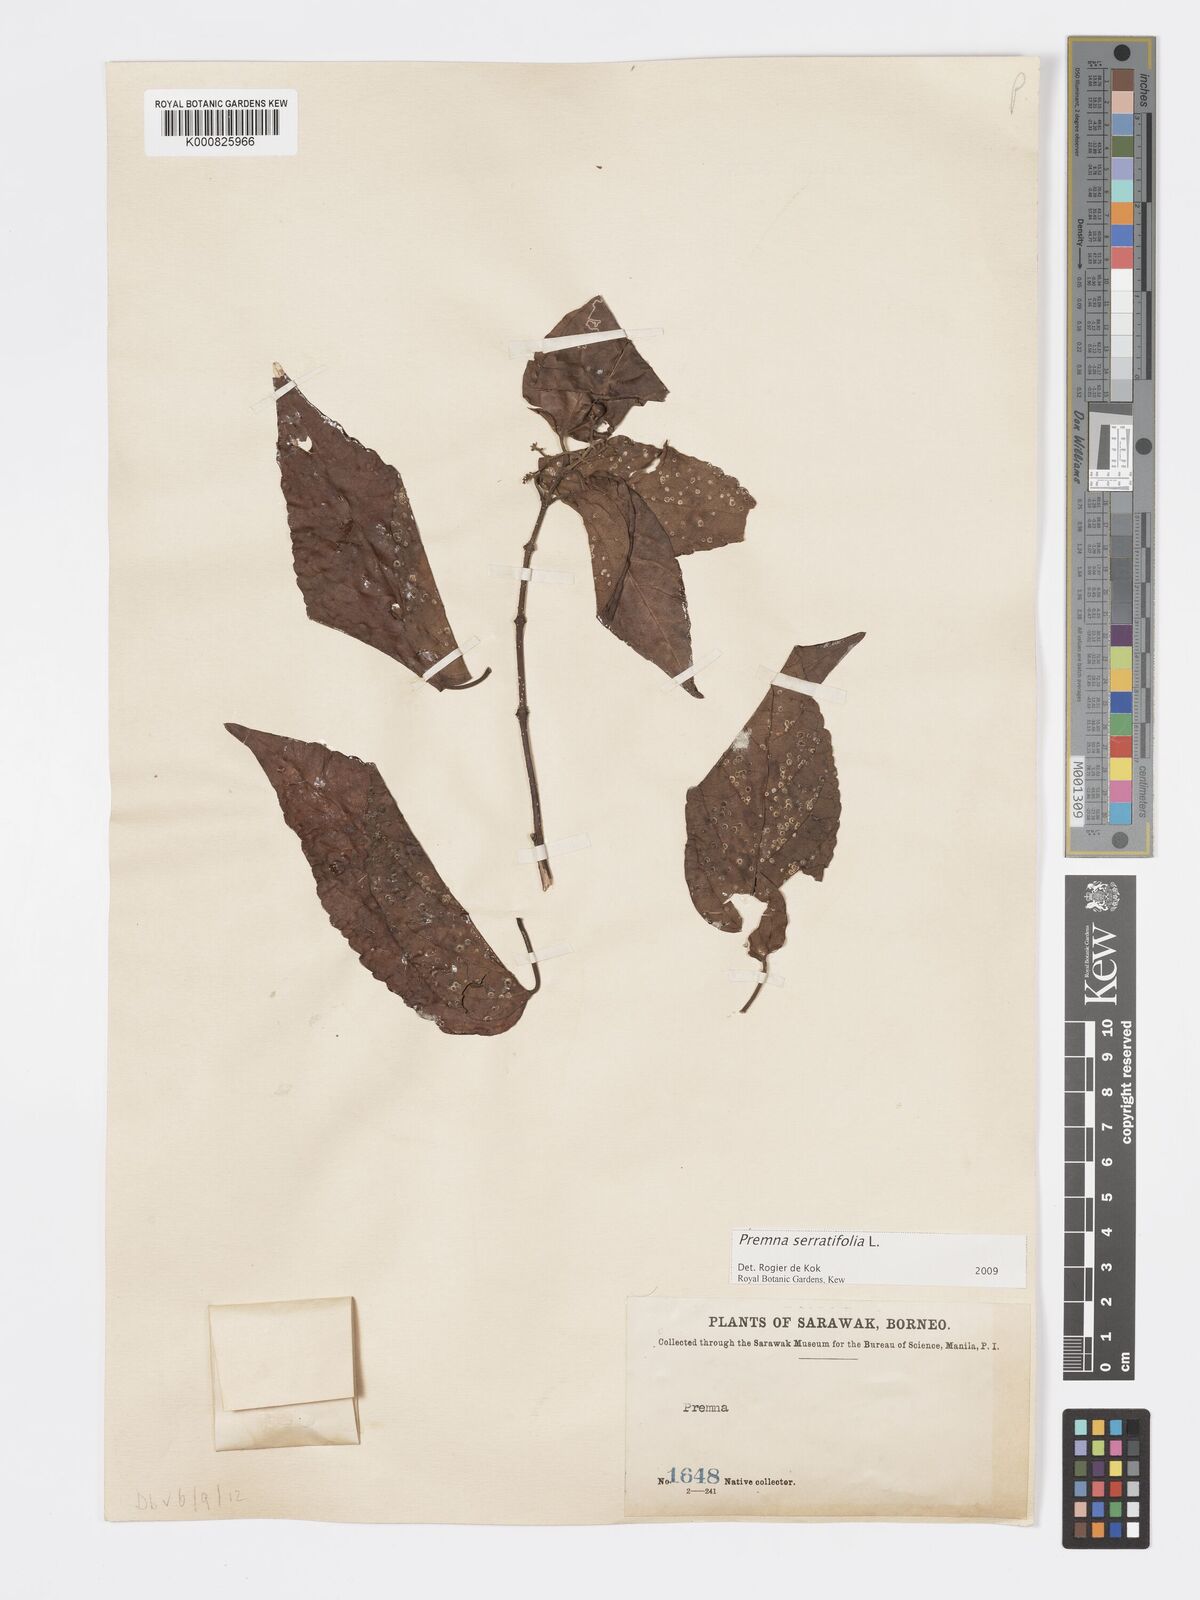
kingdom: Plantae
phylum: Tracheophyta
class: Magnoliopsida
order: Lamiales
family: Lamiaceae
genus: Premna
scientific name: Premna serratifolia
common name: Bastard guelder
